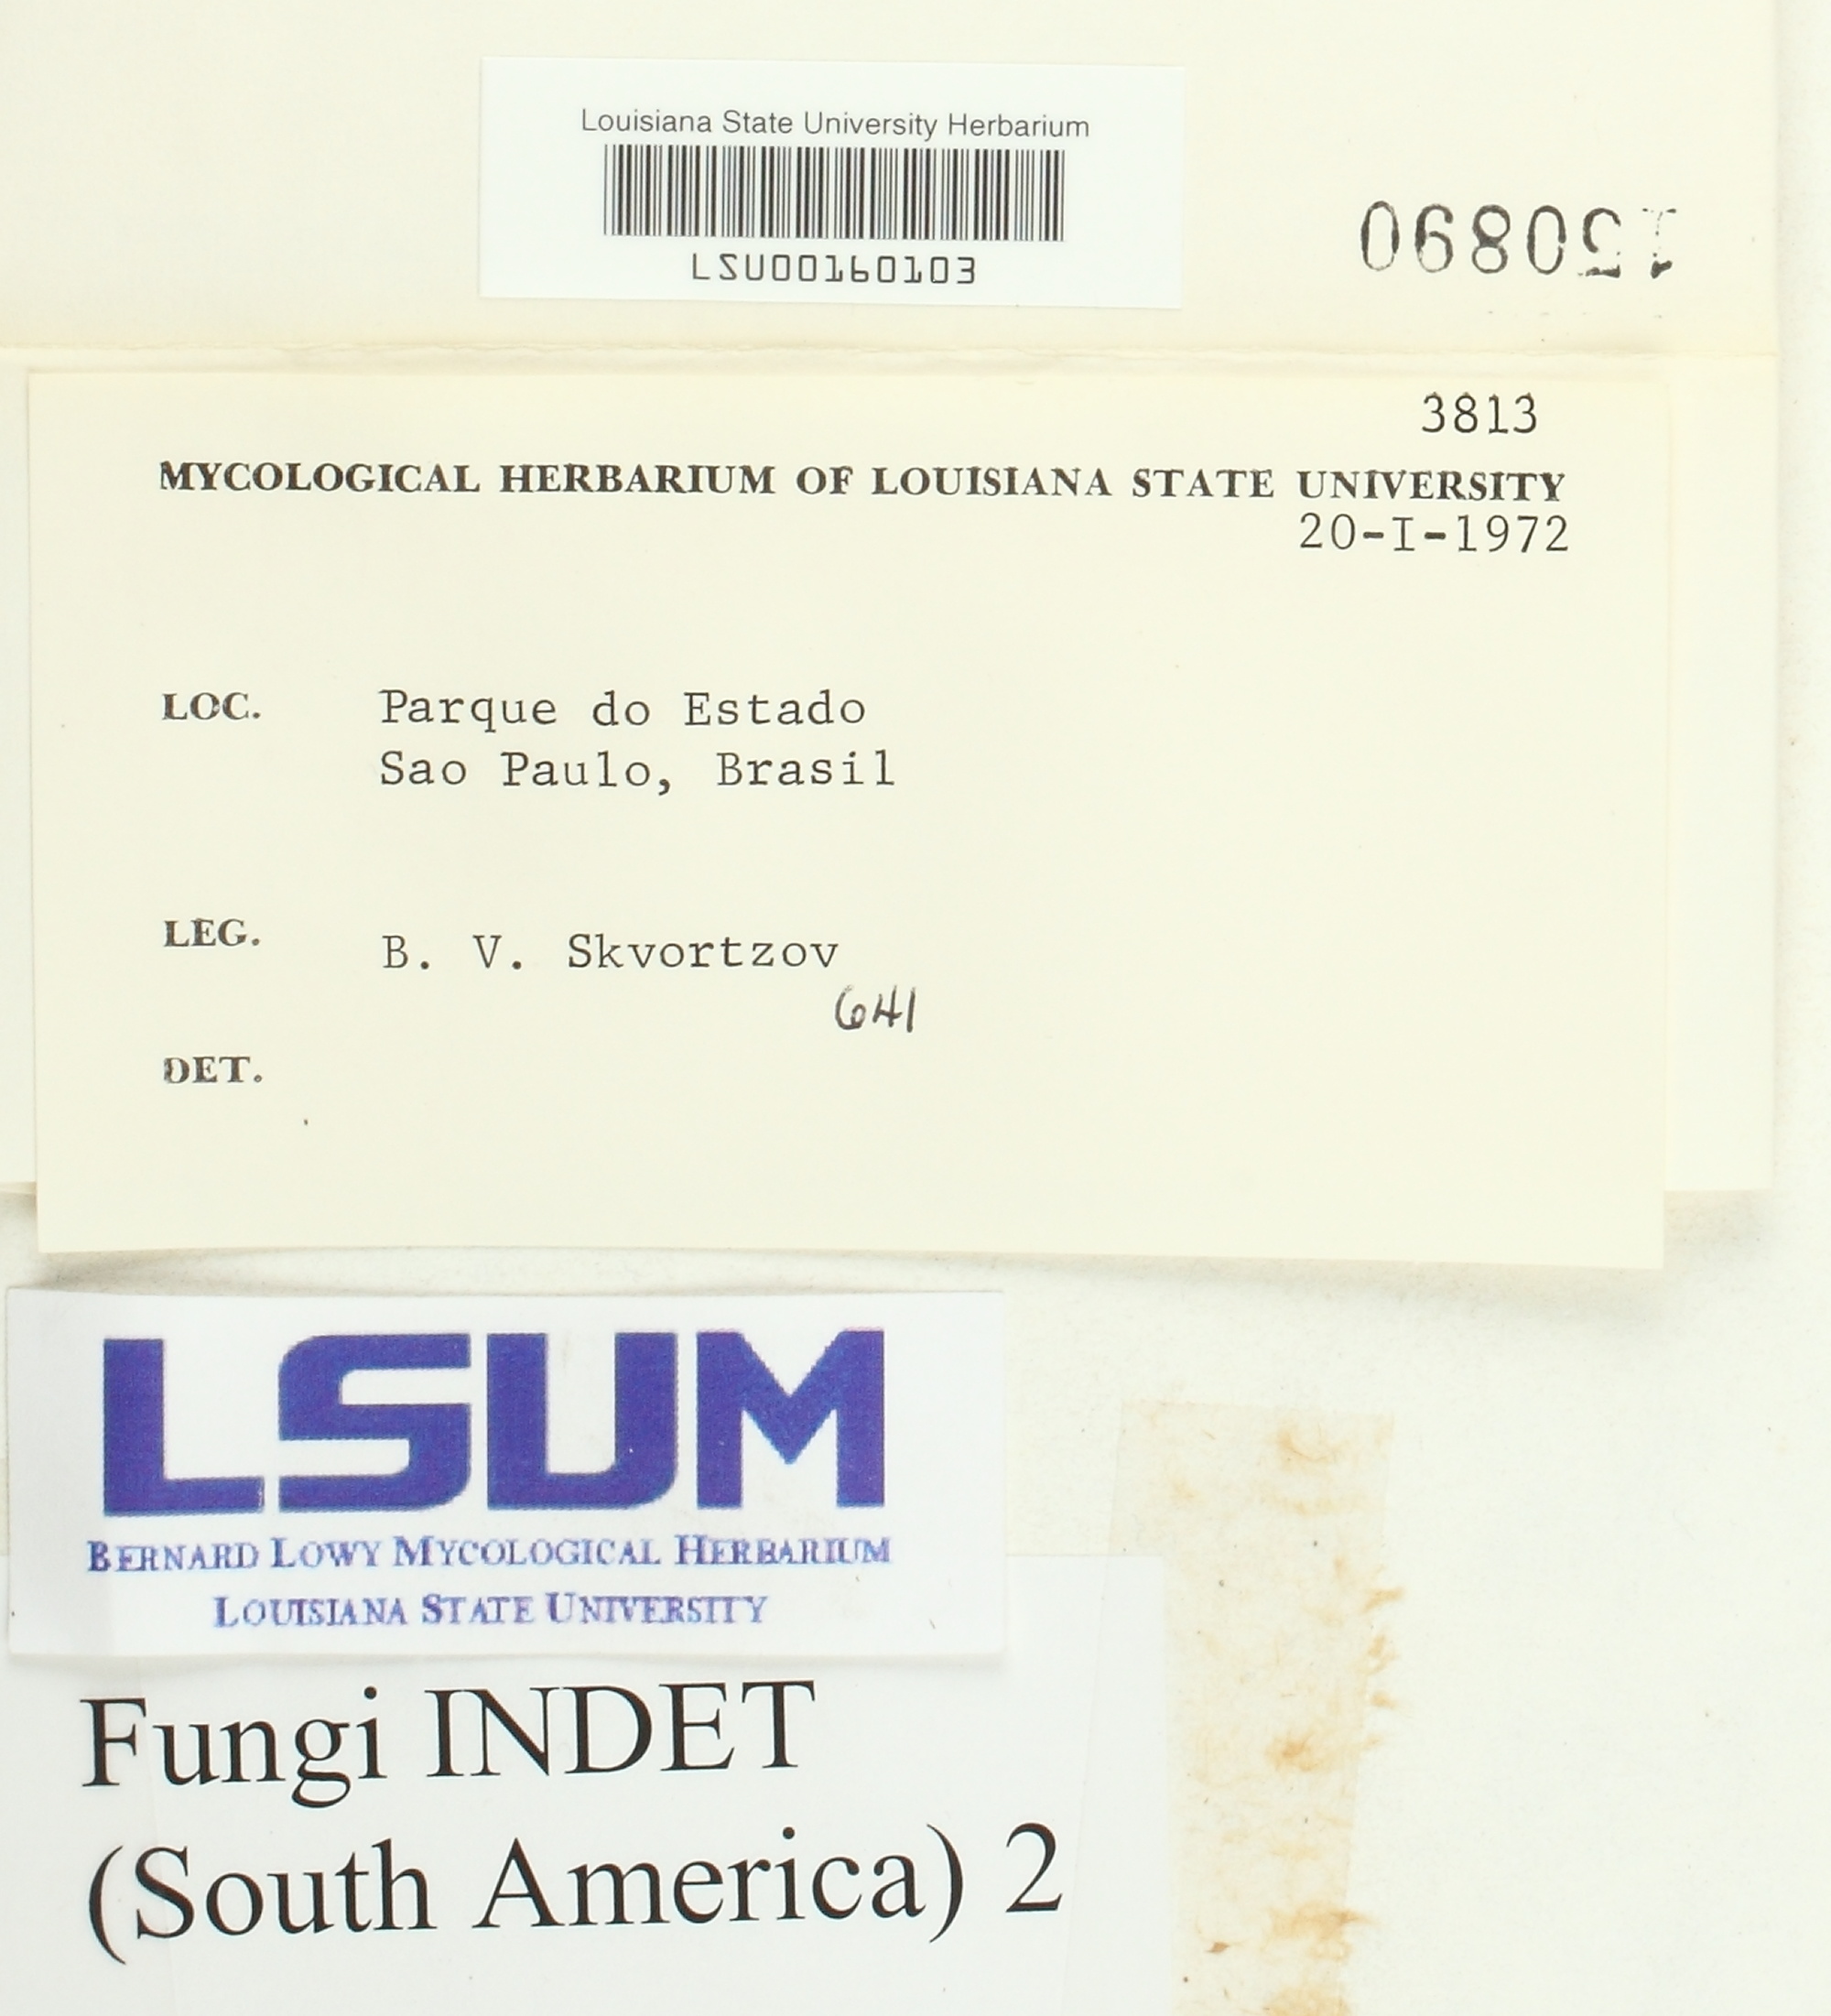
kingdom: Fungi
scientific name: Fungi
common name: Fungi
